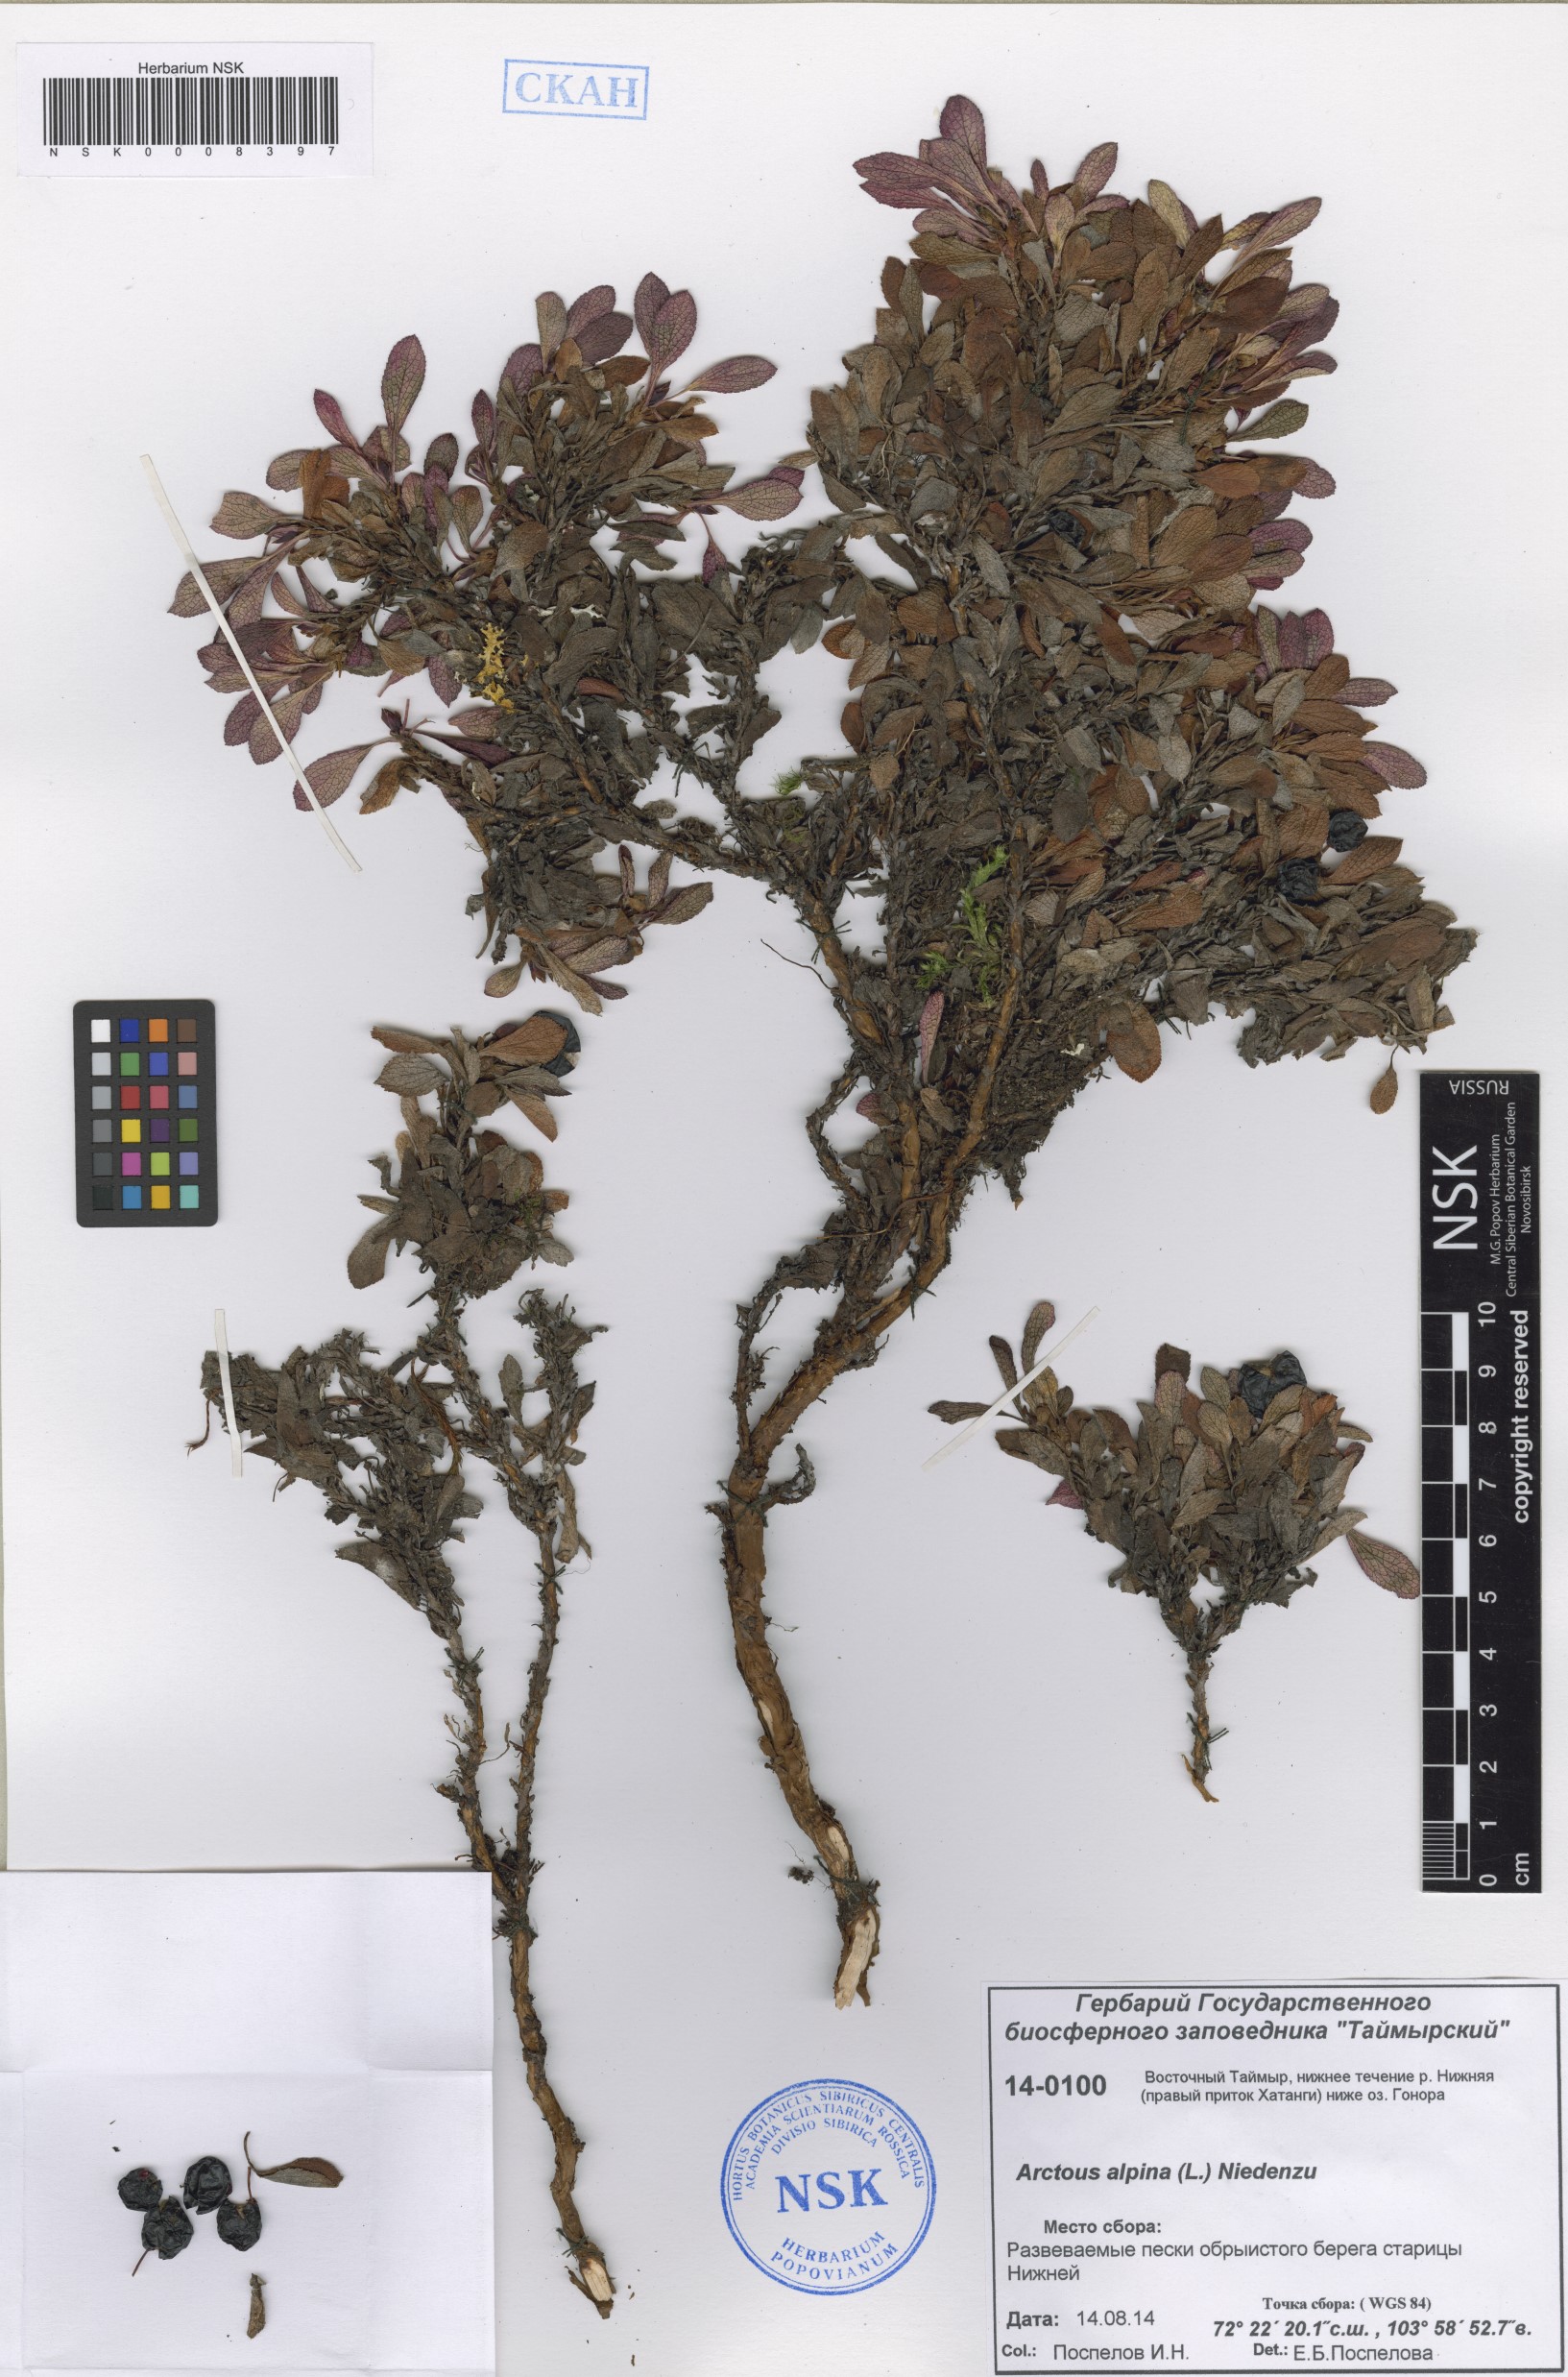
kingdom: Plantae
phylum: Tracheophyta
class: Magnoliopsida
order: Ericales
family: Ericaceae
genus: Arctostaphylos
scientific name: Arctostaphylos alpinus
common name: Alpine bearberry
